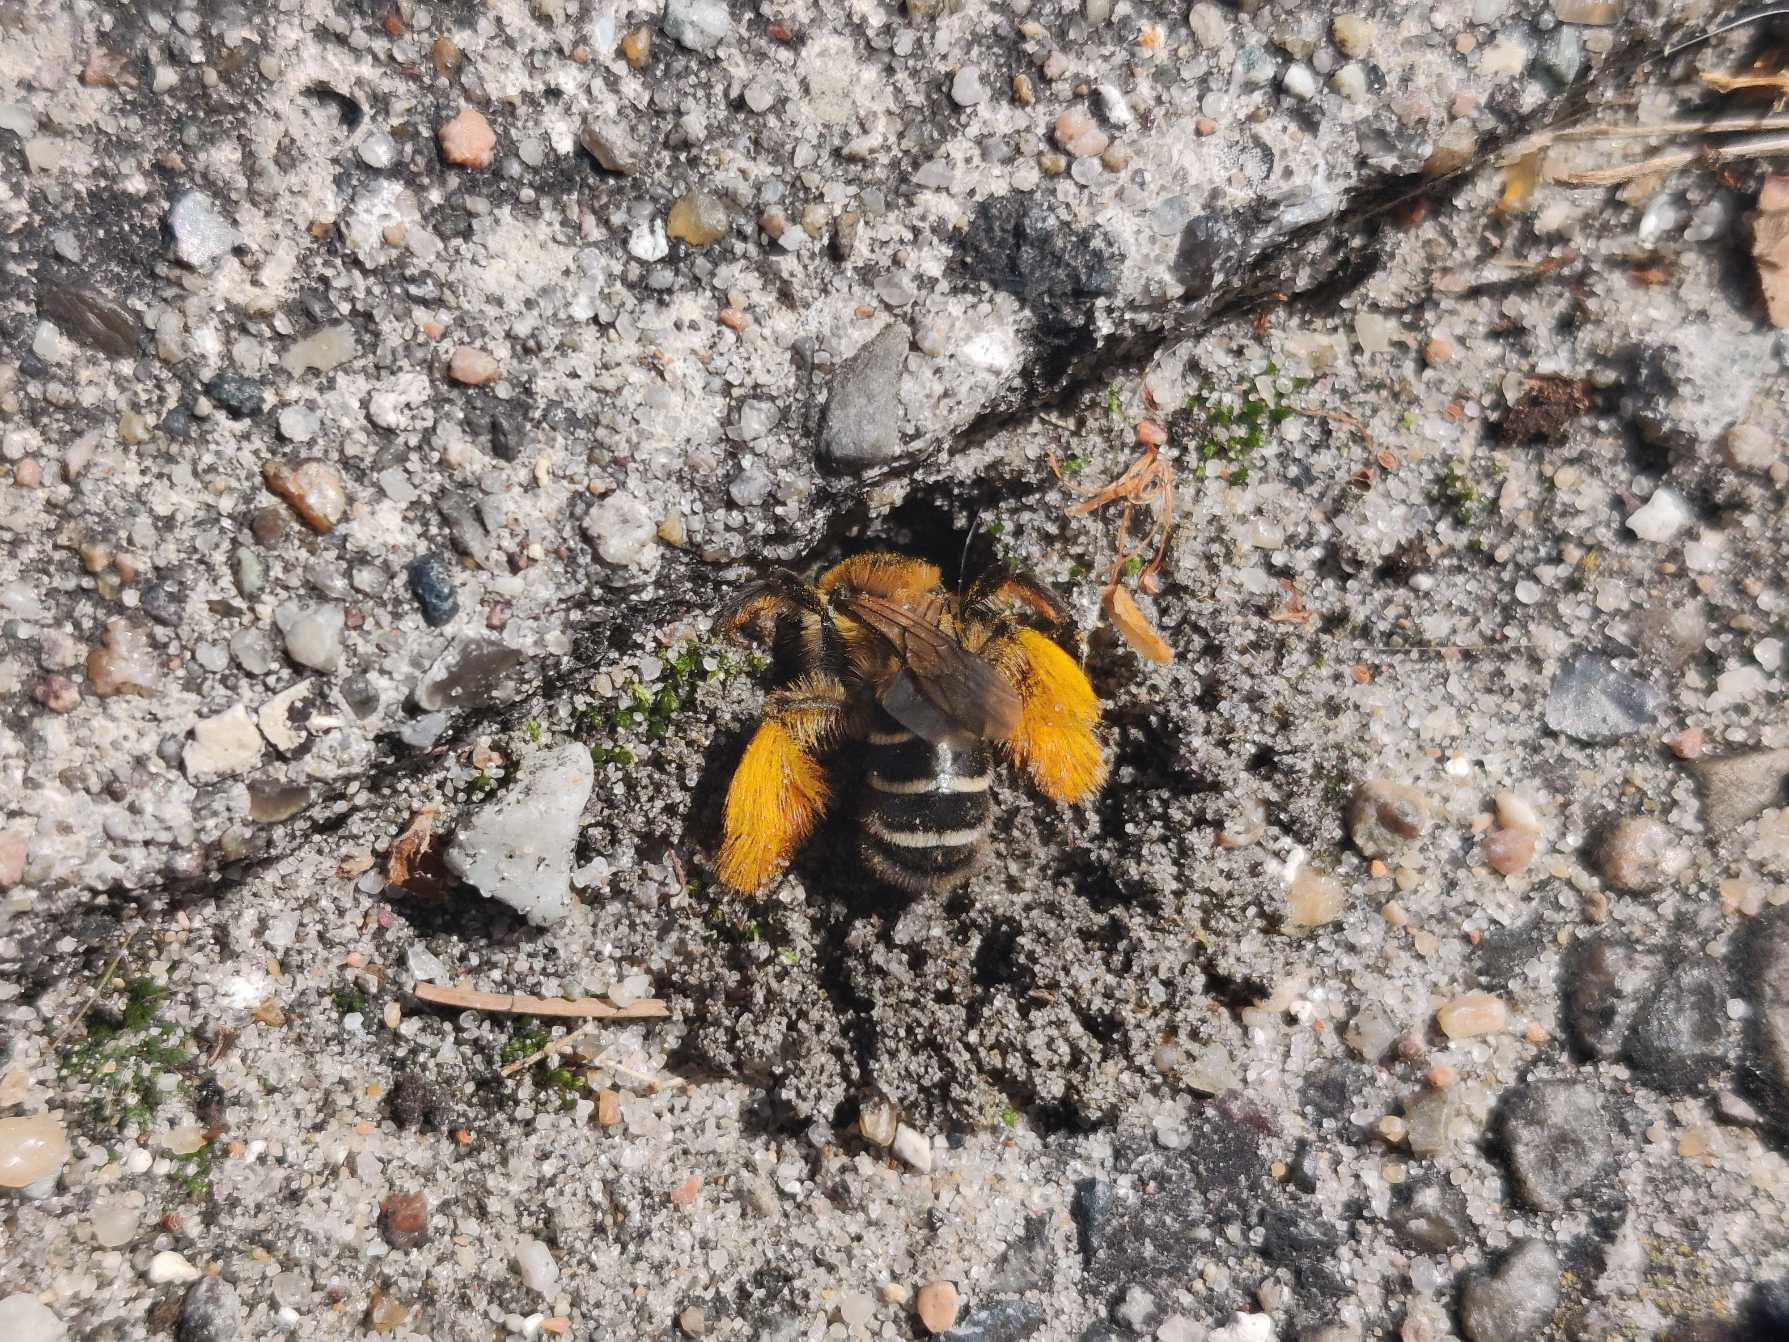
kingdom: Animalia
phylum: Arthropoda
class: Insecta
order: Hymenoptera
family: Melittidae
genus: Dasypoda
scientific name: Dasypoda hirtipes
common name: Pragtbuksebi
